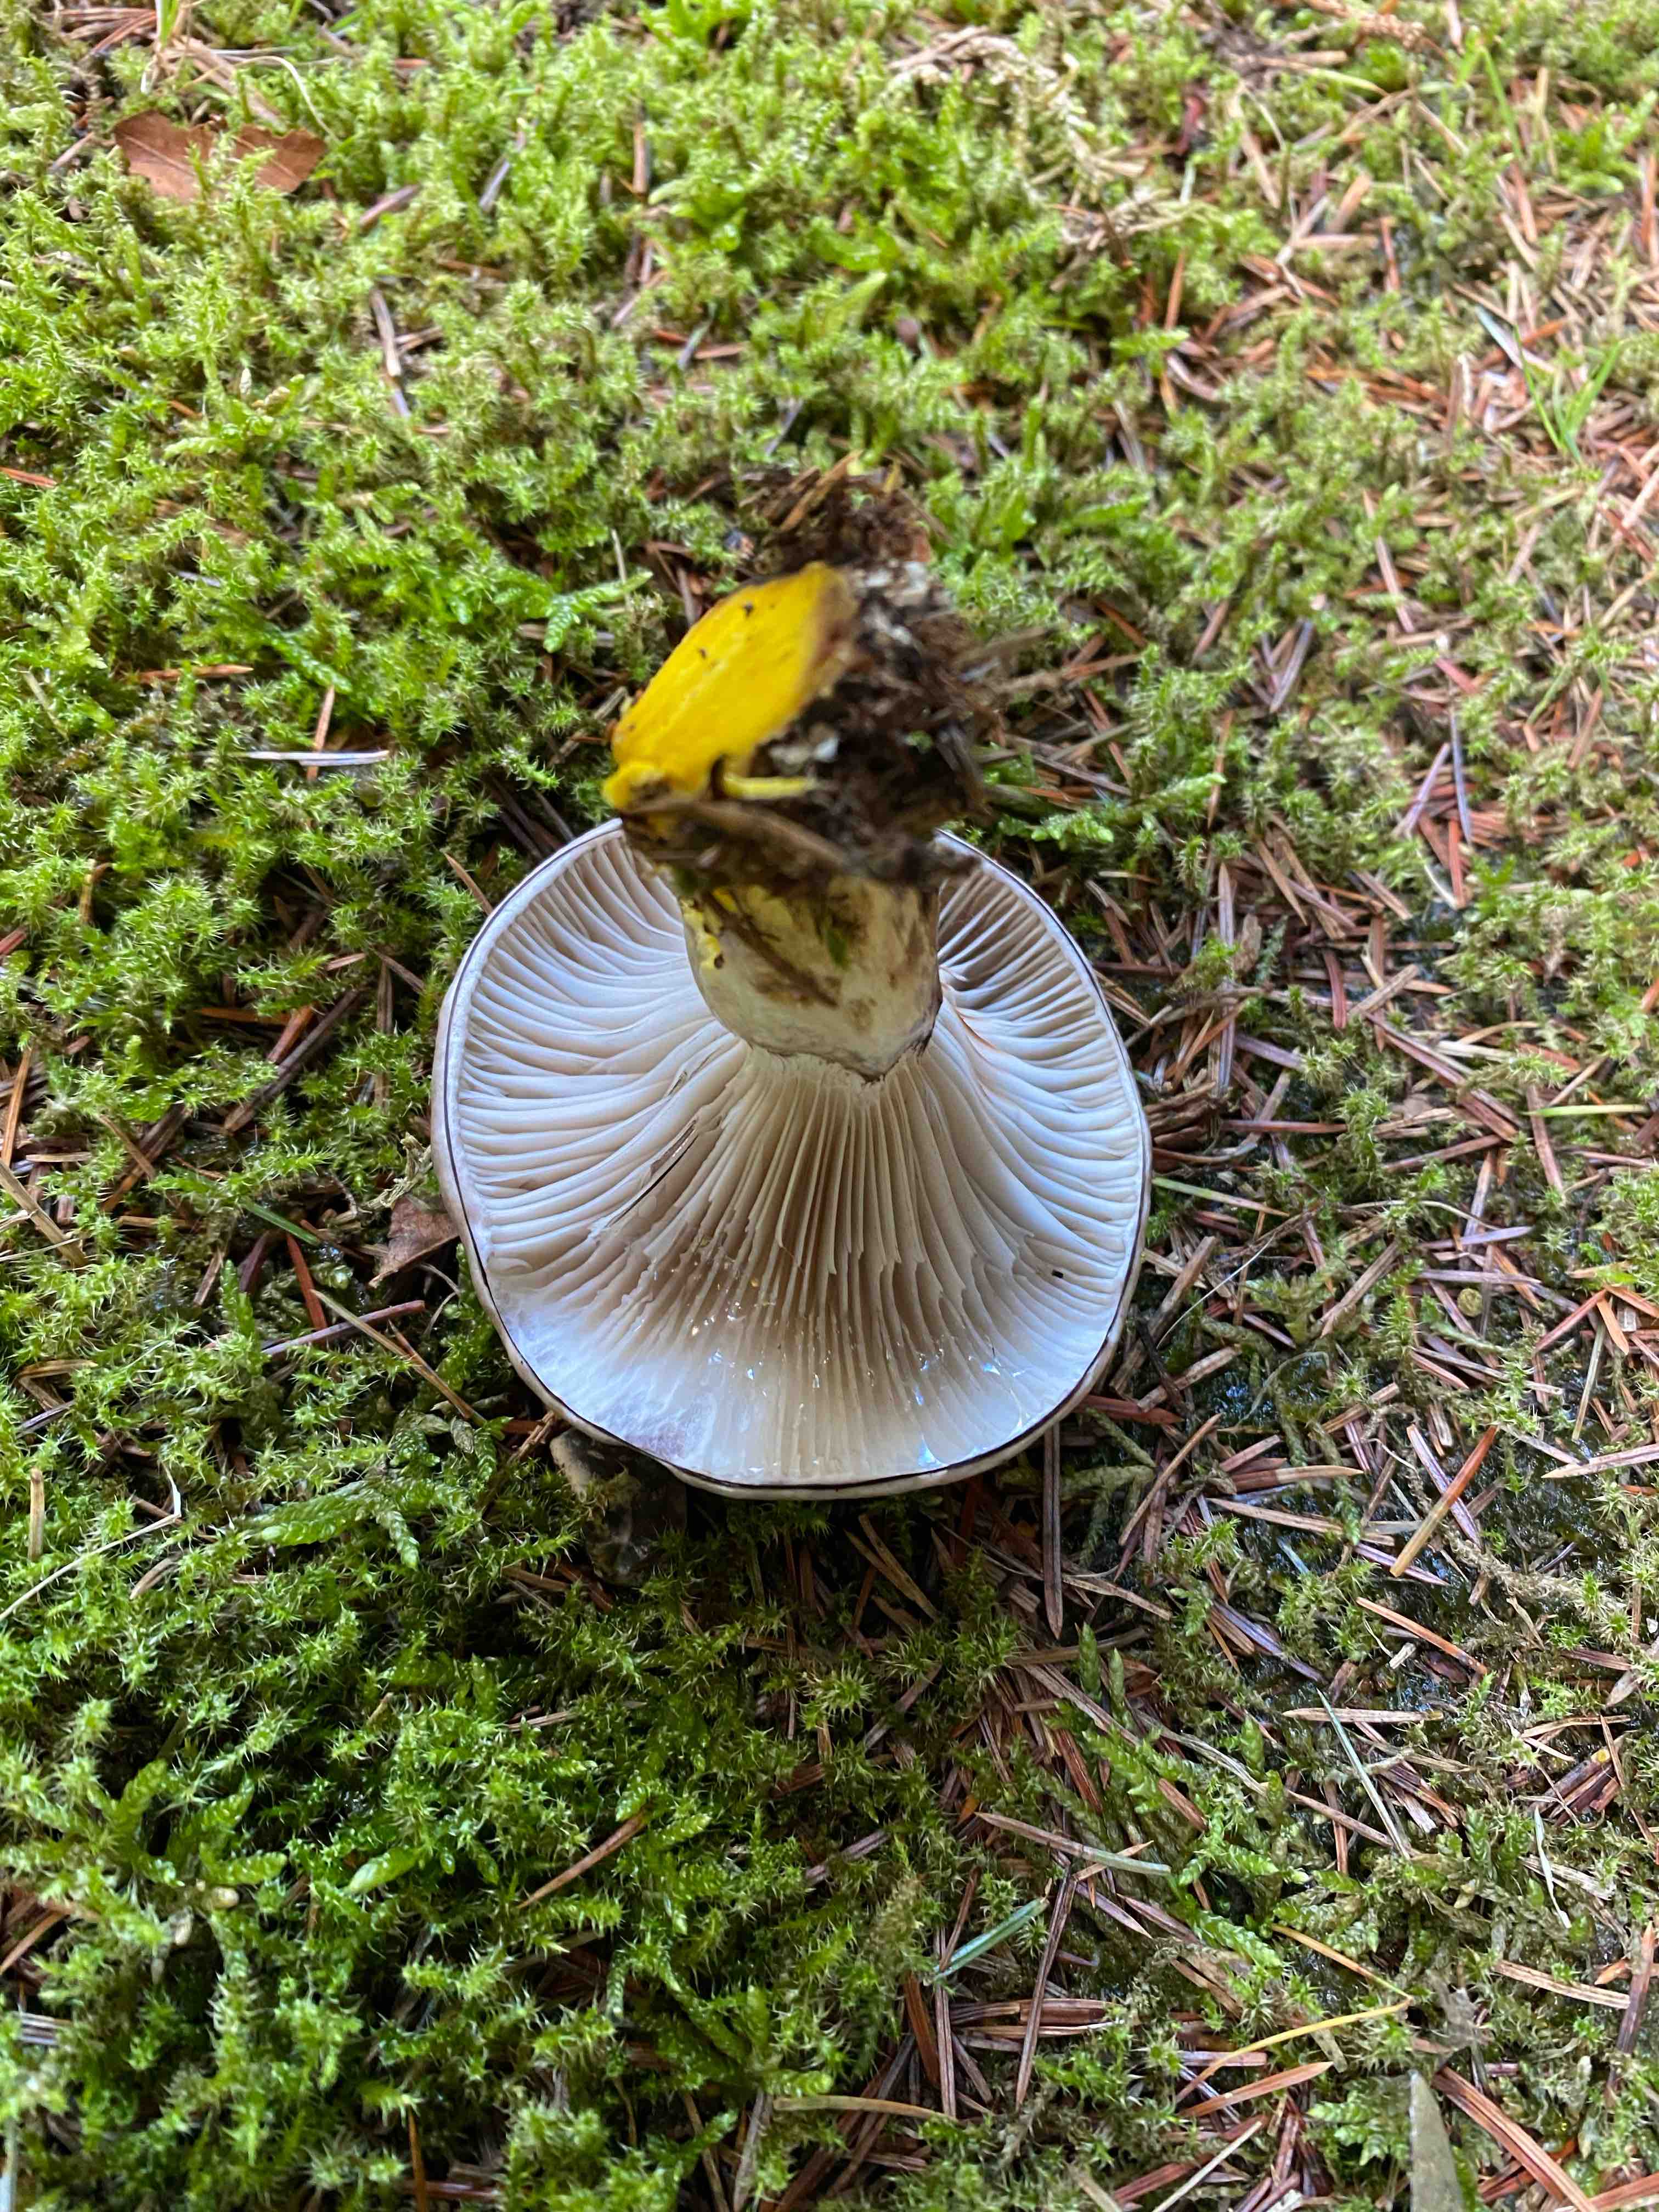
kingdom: Fungi
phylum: Basidiomycota
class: Agaricomycetes
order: Boletales
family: Gomphidiaceae
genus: Gomphidius
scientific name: Gomphidius glutinosus
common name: grå slimslør
